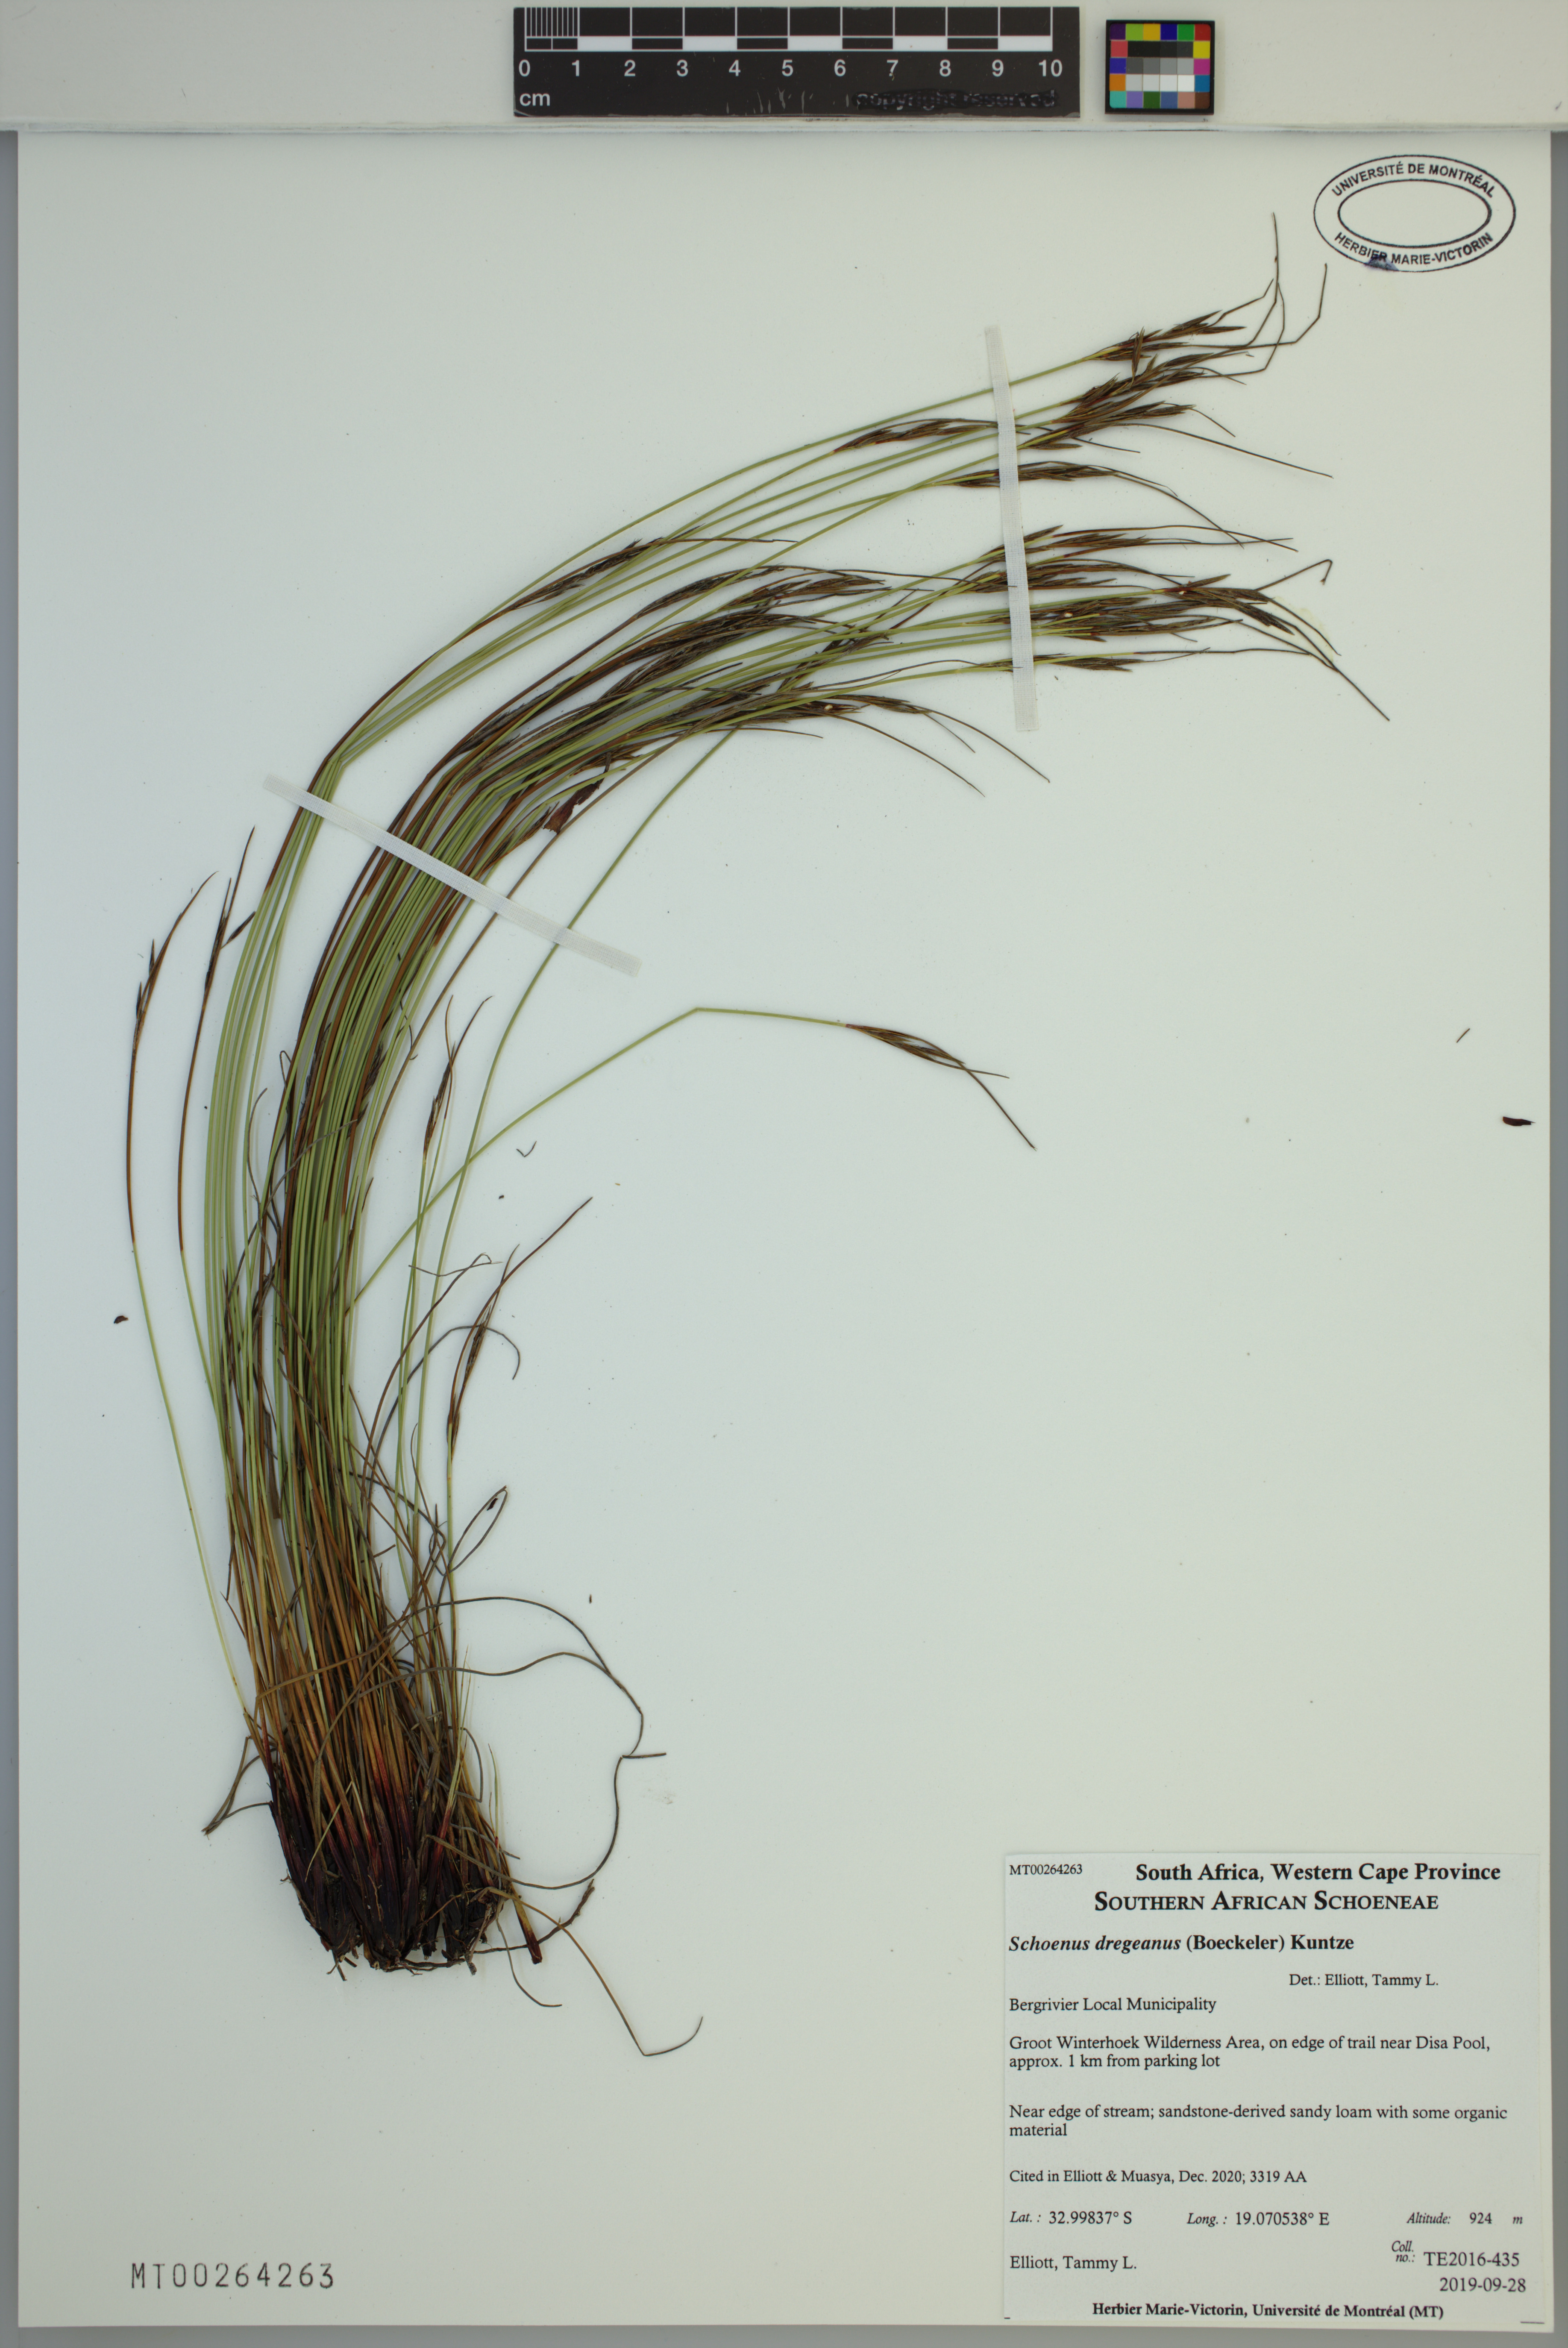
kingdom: Plantae
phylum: Tracheophyta
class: Liliopsida
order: Poales
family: Cyperaceae
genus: Schoenus
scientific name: Schoenus dregeanus
